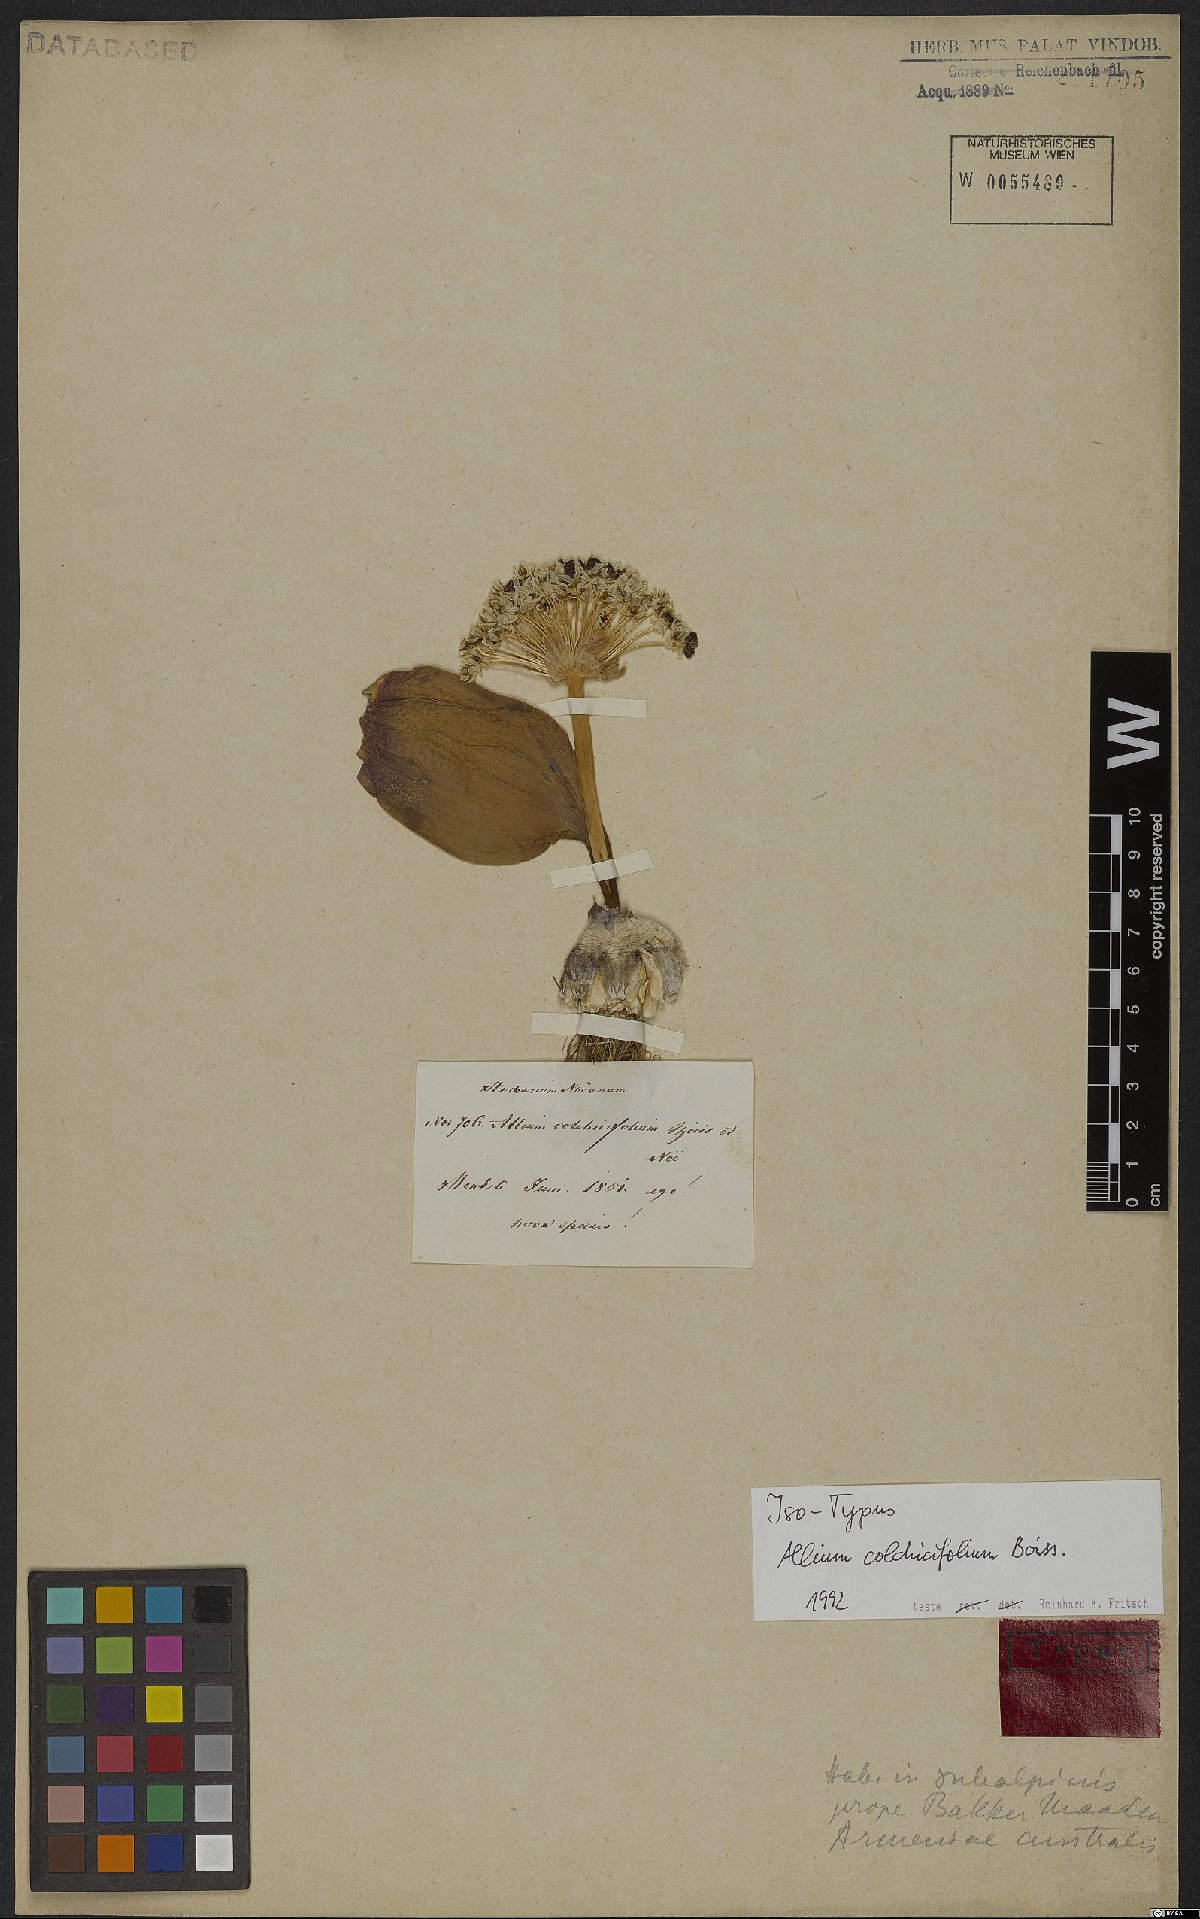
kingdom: Plantae
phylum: Tracheophyta
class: Liliopsida
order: Asparagales
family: Amaryllidaceae
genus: Allium
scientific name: Allium colchicifolium
